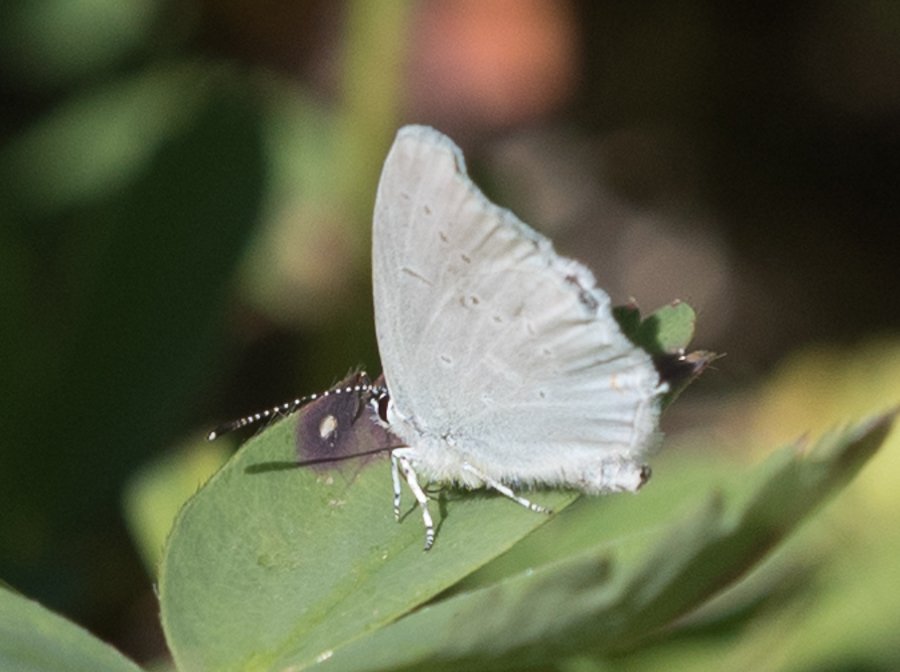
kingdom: Animalia
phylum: Arthropoda
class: Insecta
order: Lepidoptera
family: Lycaenidae
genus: Elkalyce
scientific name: Elkalyce amyntula
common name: Western Tailed-Blue
